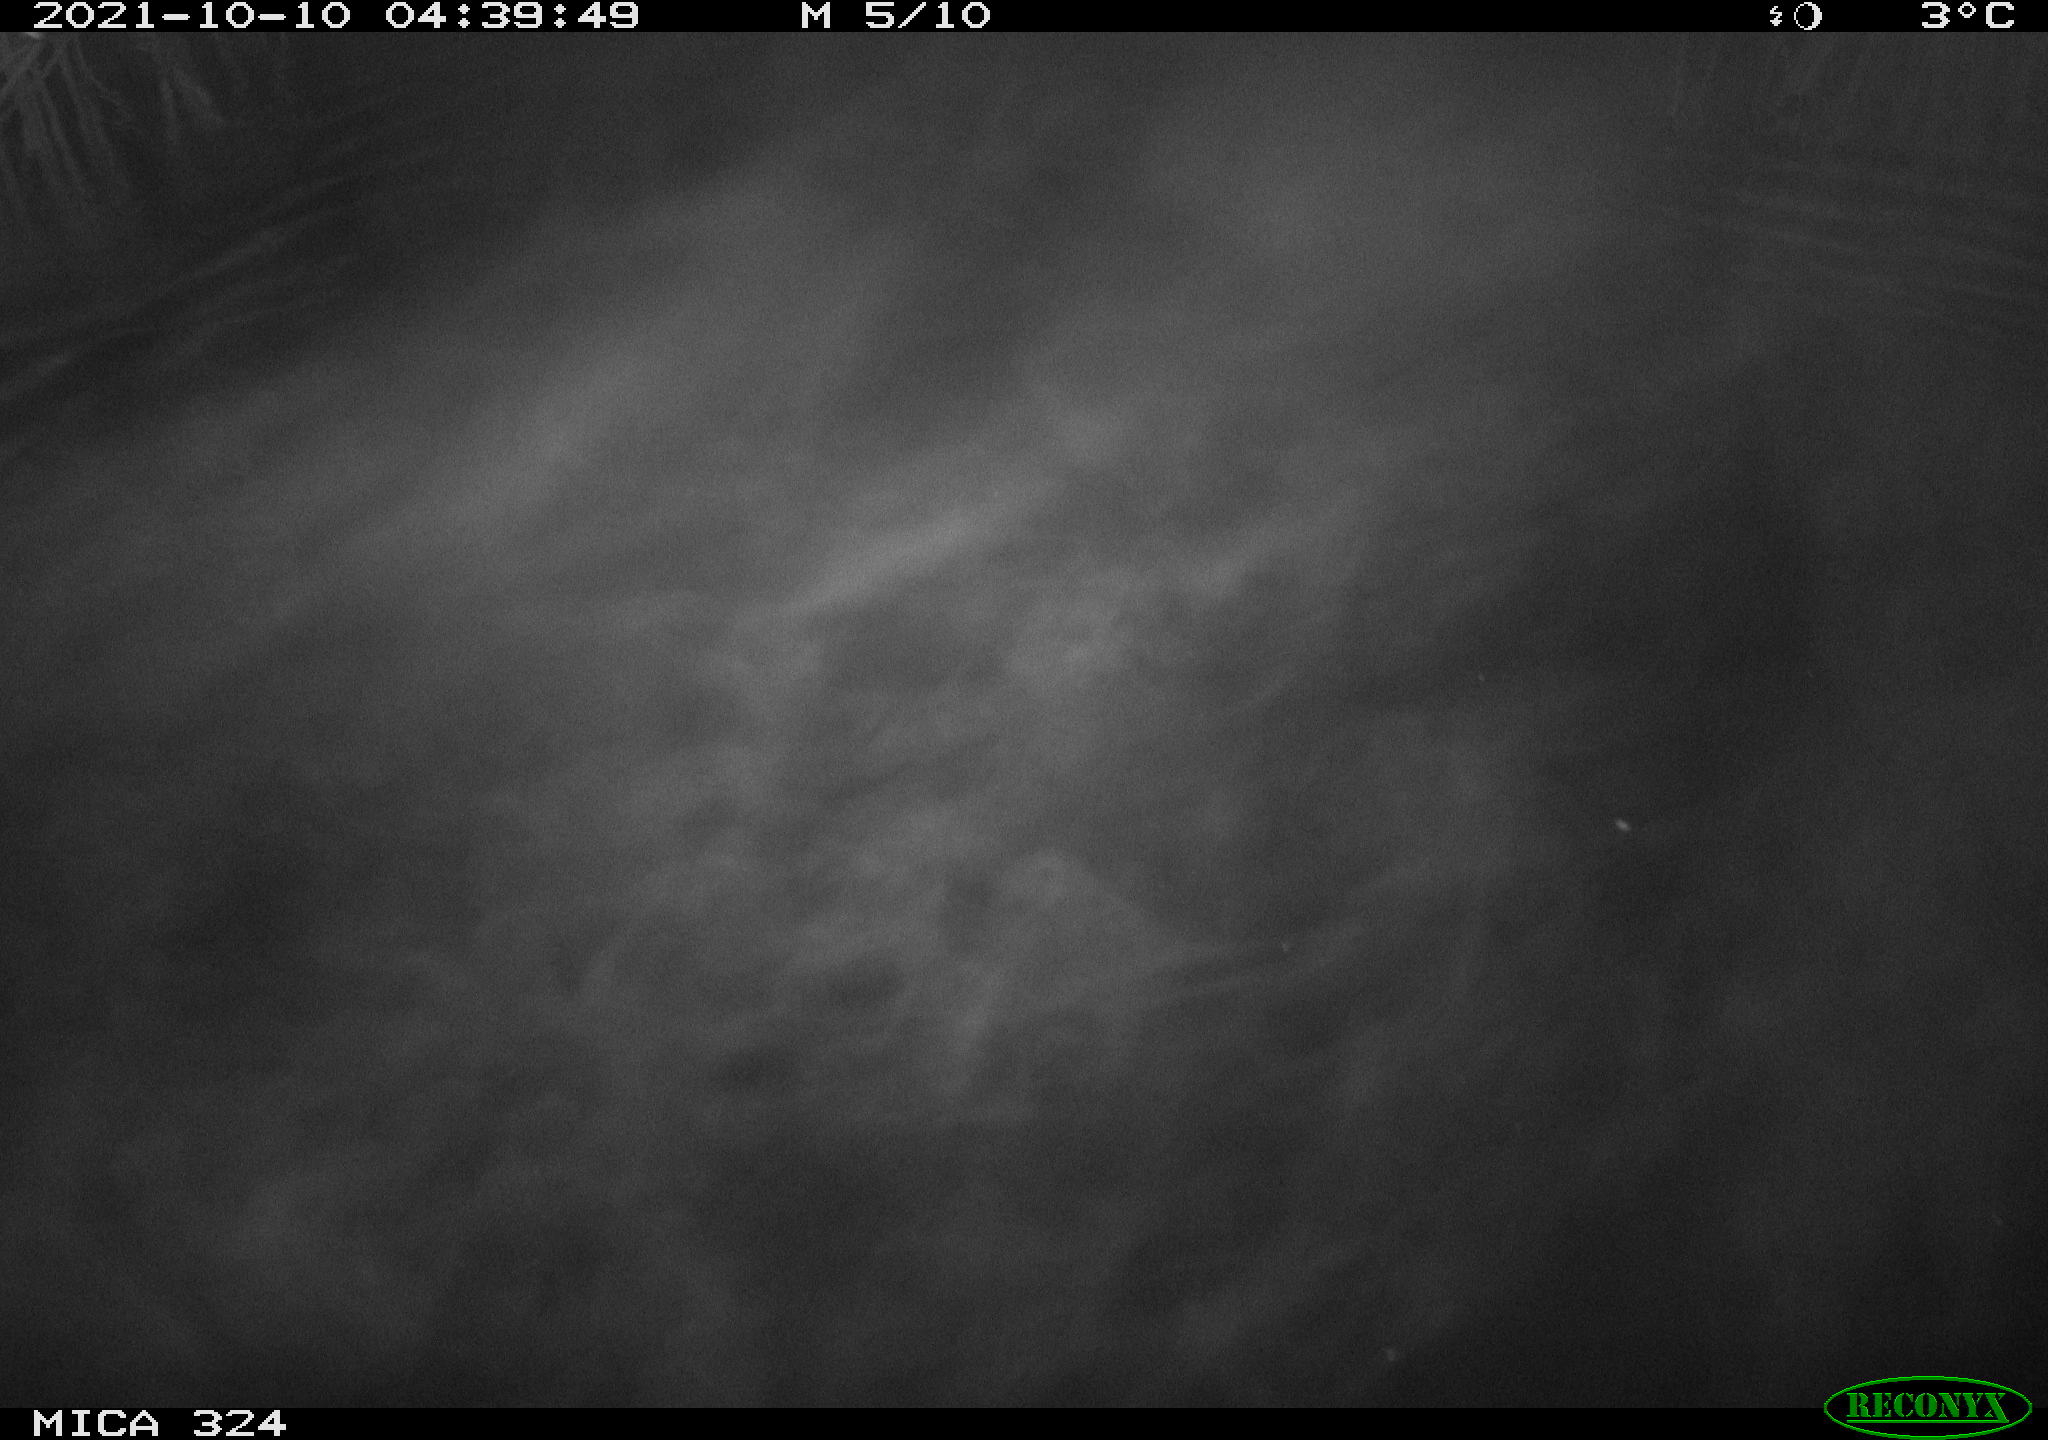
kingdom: Animalia
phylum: Chordata
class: Mammalia
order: Rodentia
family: Cricetidae
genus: Ondatra
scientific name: Ondatra zibethicus
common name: Muskrat
